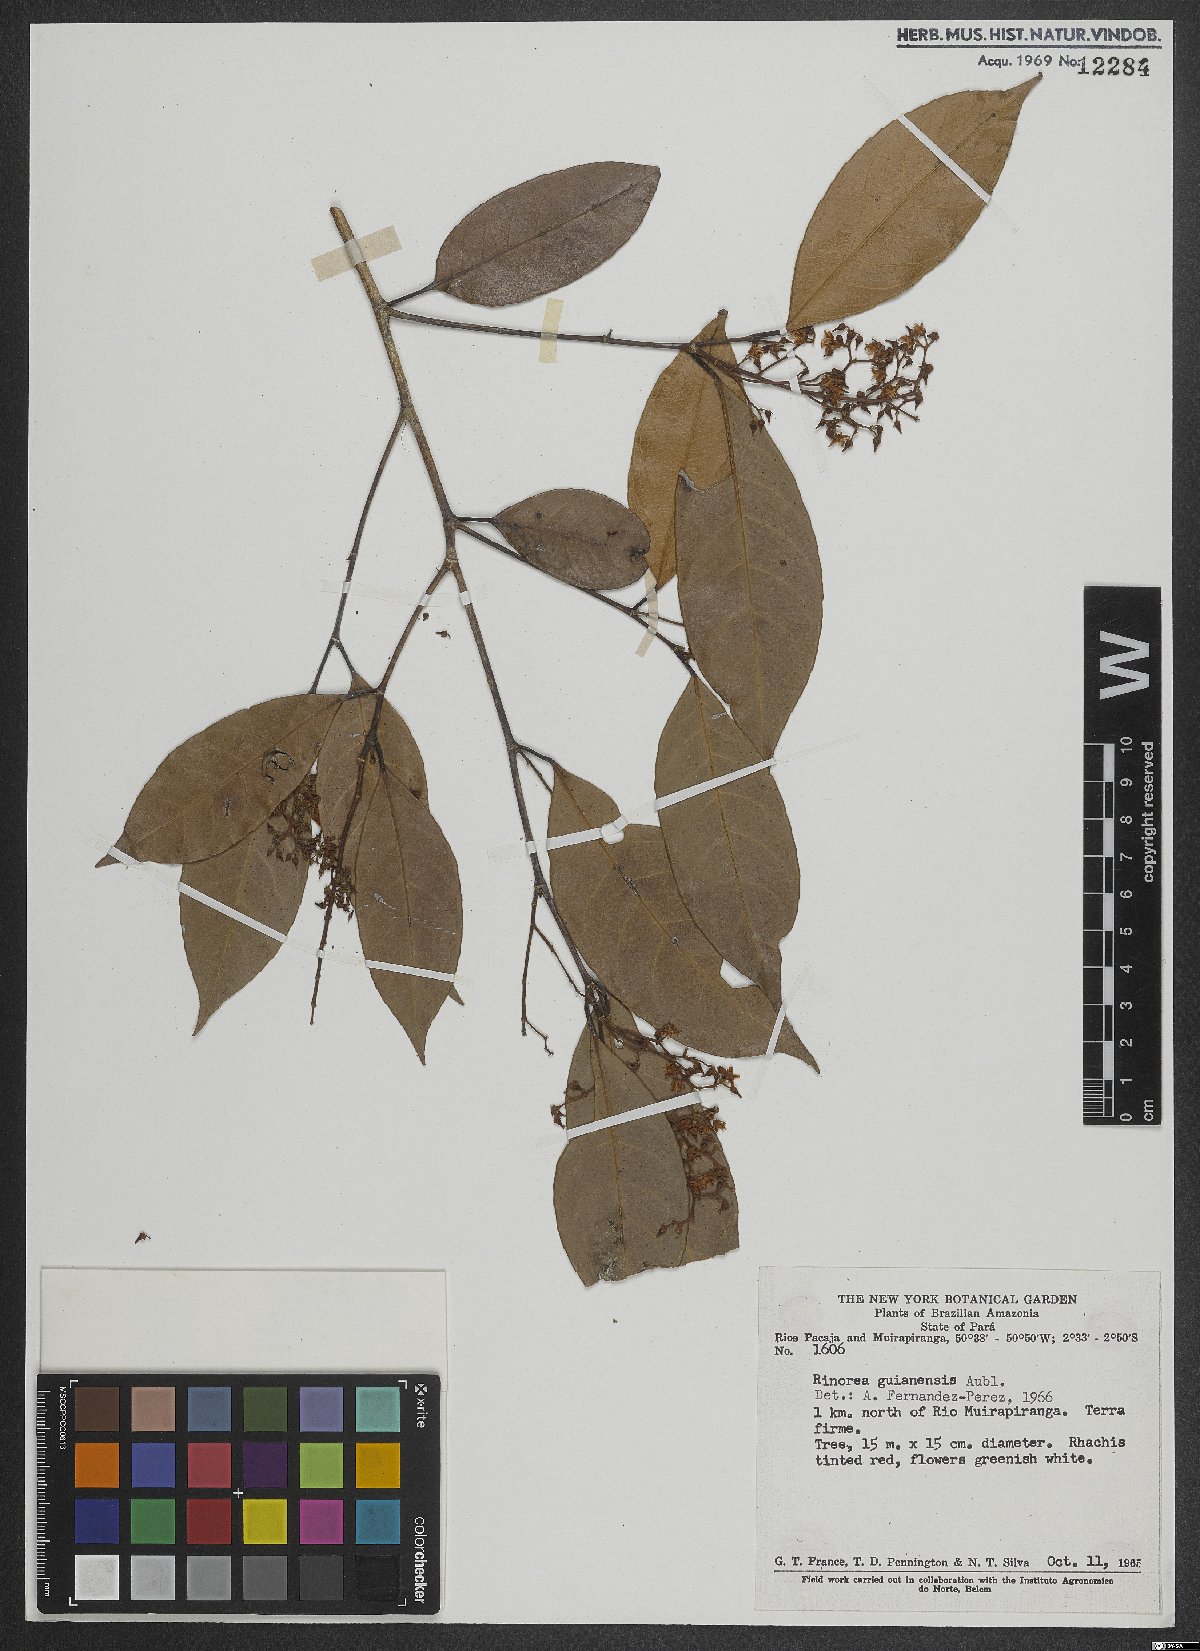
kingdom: Plantae
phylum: Tracheophyta
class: Magnoliopsida
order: Malpighiales
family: Violaceae
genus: Rinorea
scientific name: Rinorea guianensis
